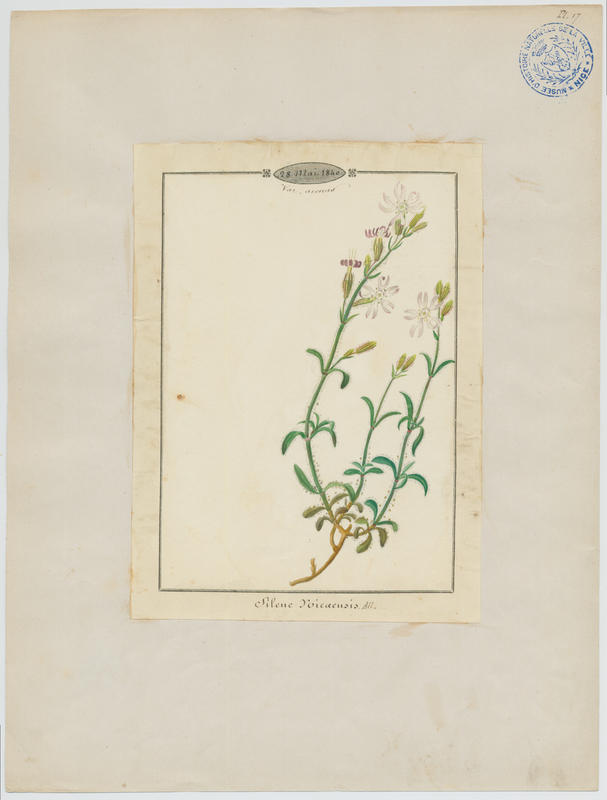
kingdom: Plantae
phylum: Tracheophyta
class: Magnoliopsida
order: Caryophyllales
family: Caryophyllaceae
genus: Silene
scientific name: Silene nicaeensis
